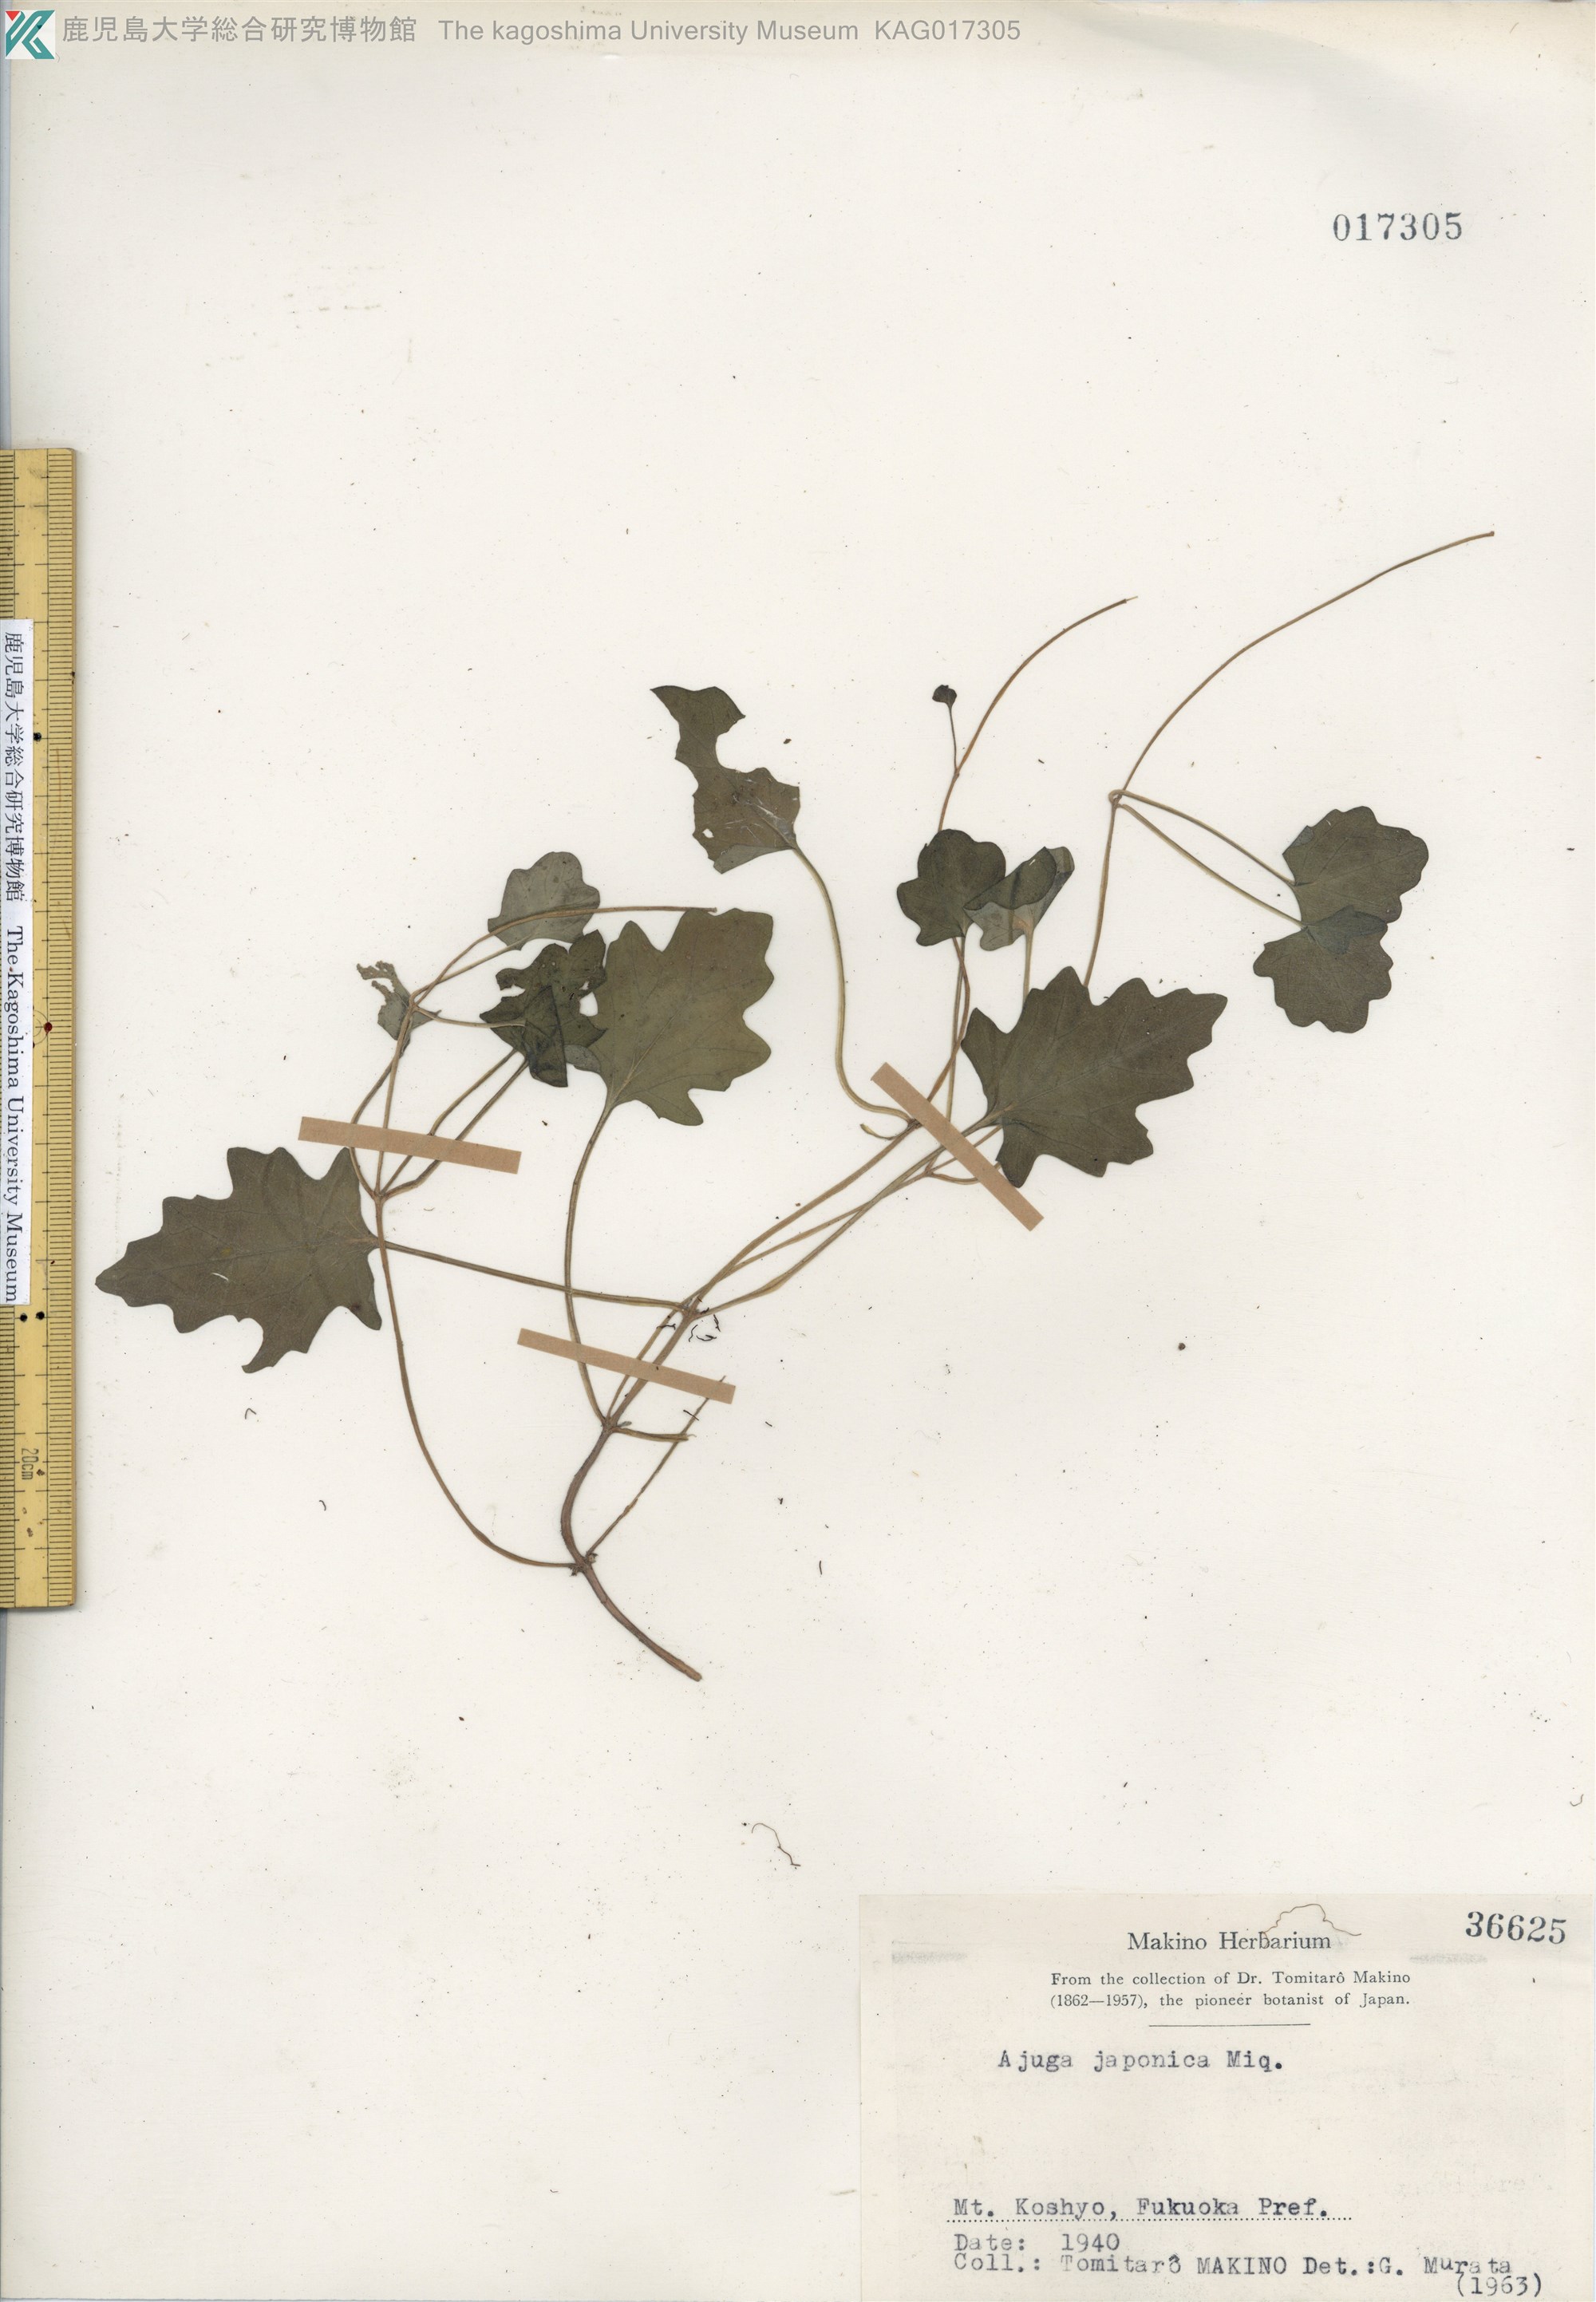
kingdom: Plantae
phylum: Tracheophyta
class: Magnoliopsida
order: Lamiales
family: Lamiaceae
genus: Ajuga
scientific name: Ajuga japonica
